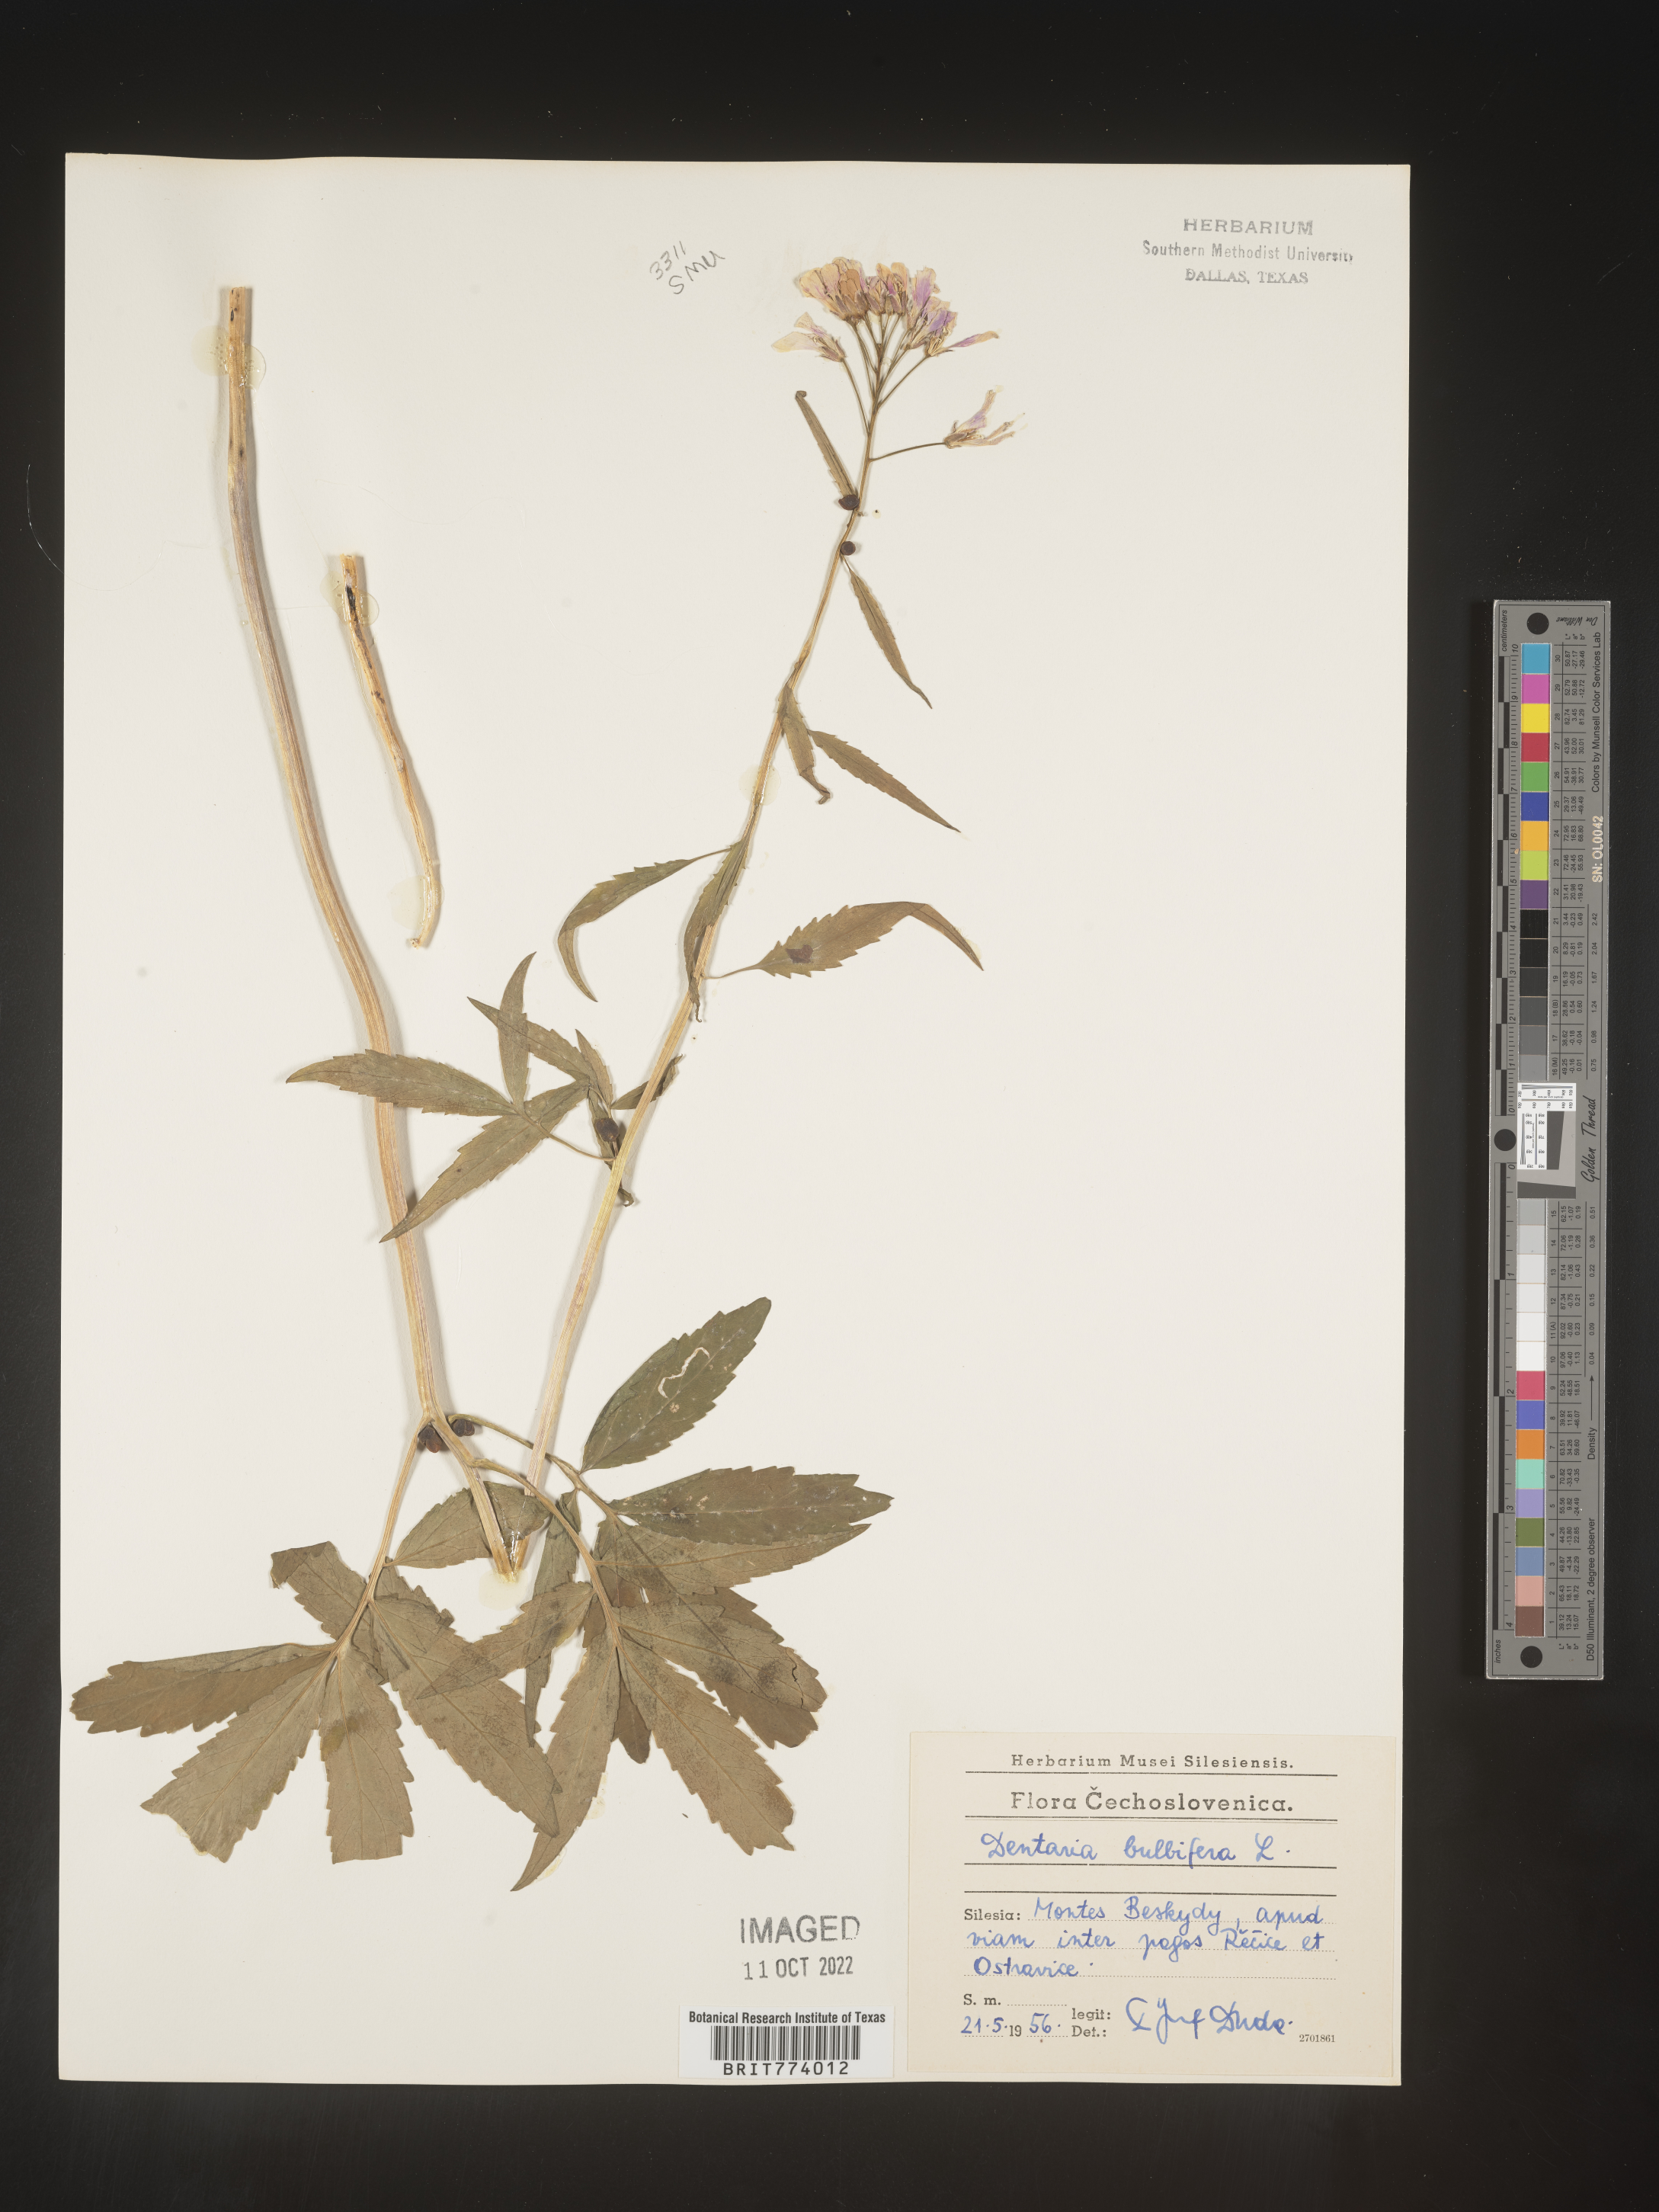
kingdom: Plantae
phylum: Tracheophyta
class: Magnoliopsida
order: Brassicales
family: Brassicaceae
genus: Cardamine
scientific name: Cardamine
